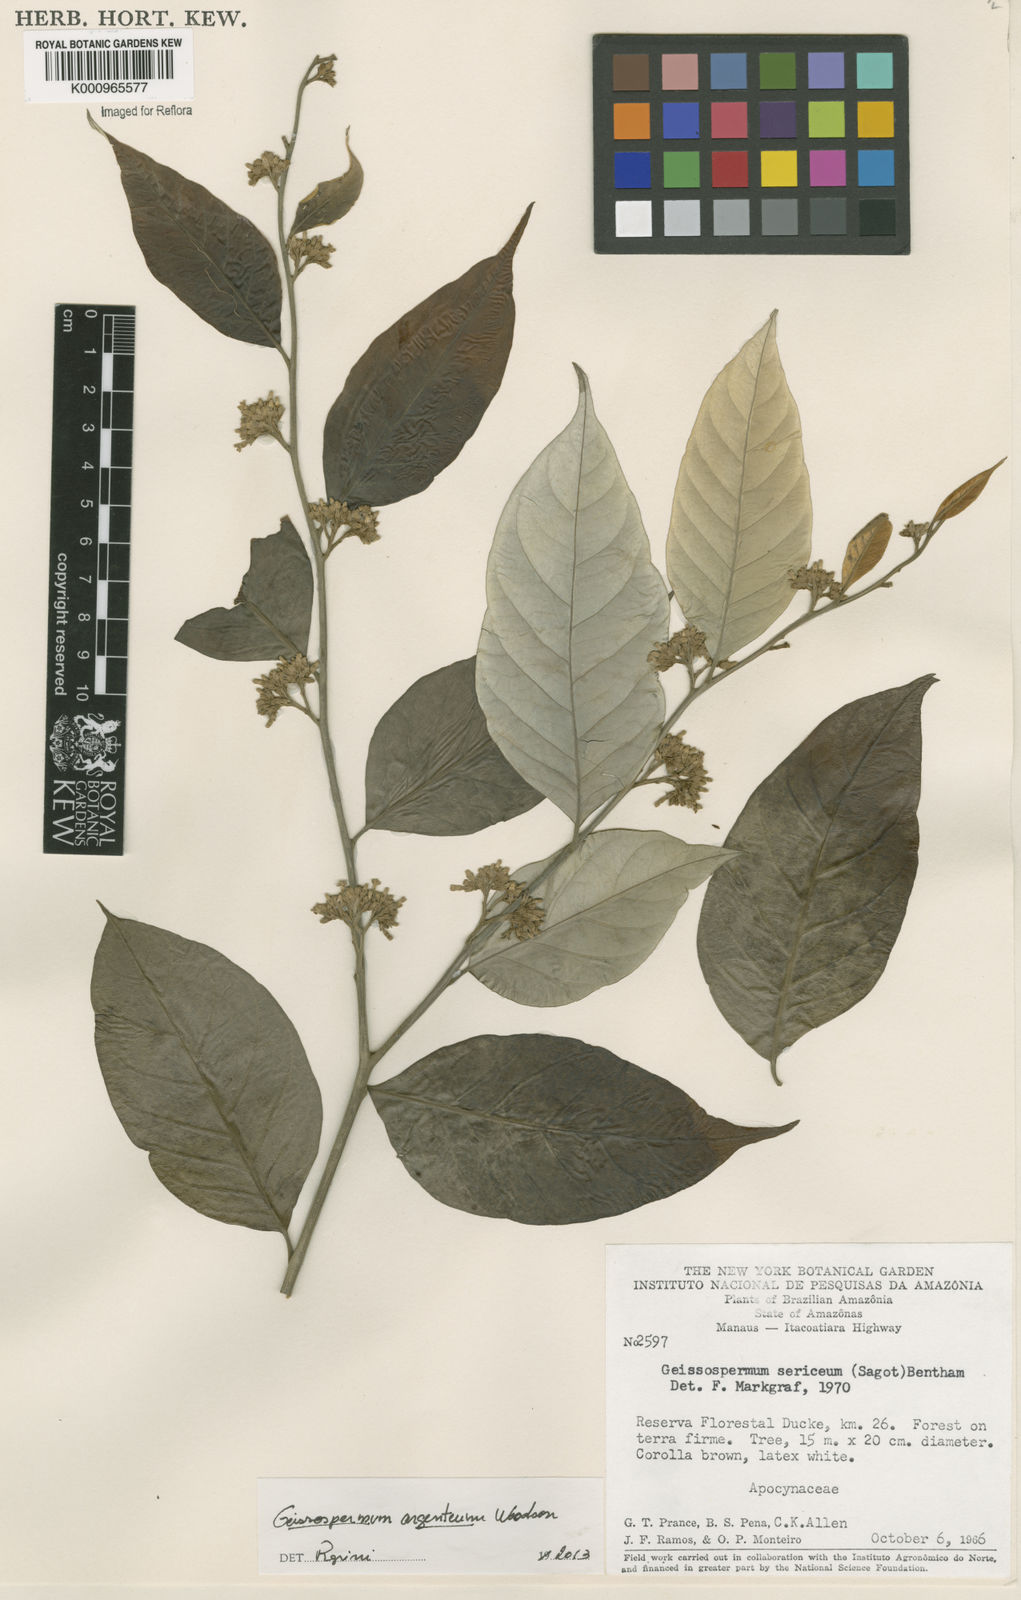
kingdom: Plantae
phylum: Tracheophyta
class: Magnoliopsida
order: Gentianales
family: Apocynaceae
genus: Geissospermum
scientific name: Geissospermum argenteum
